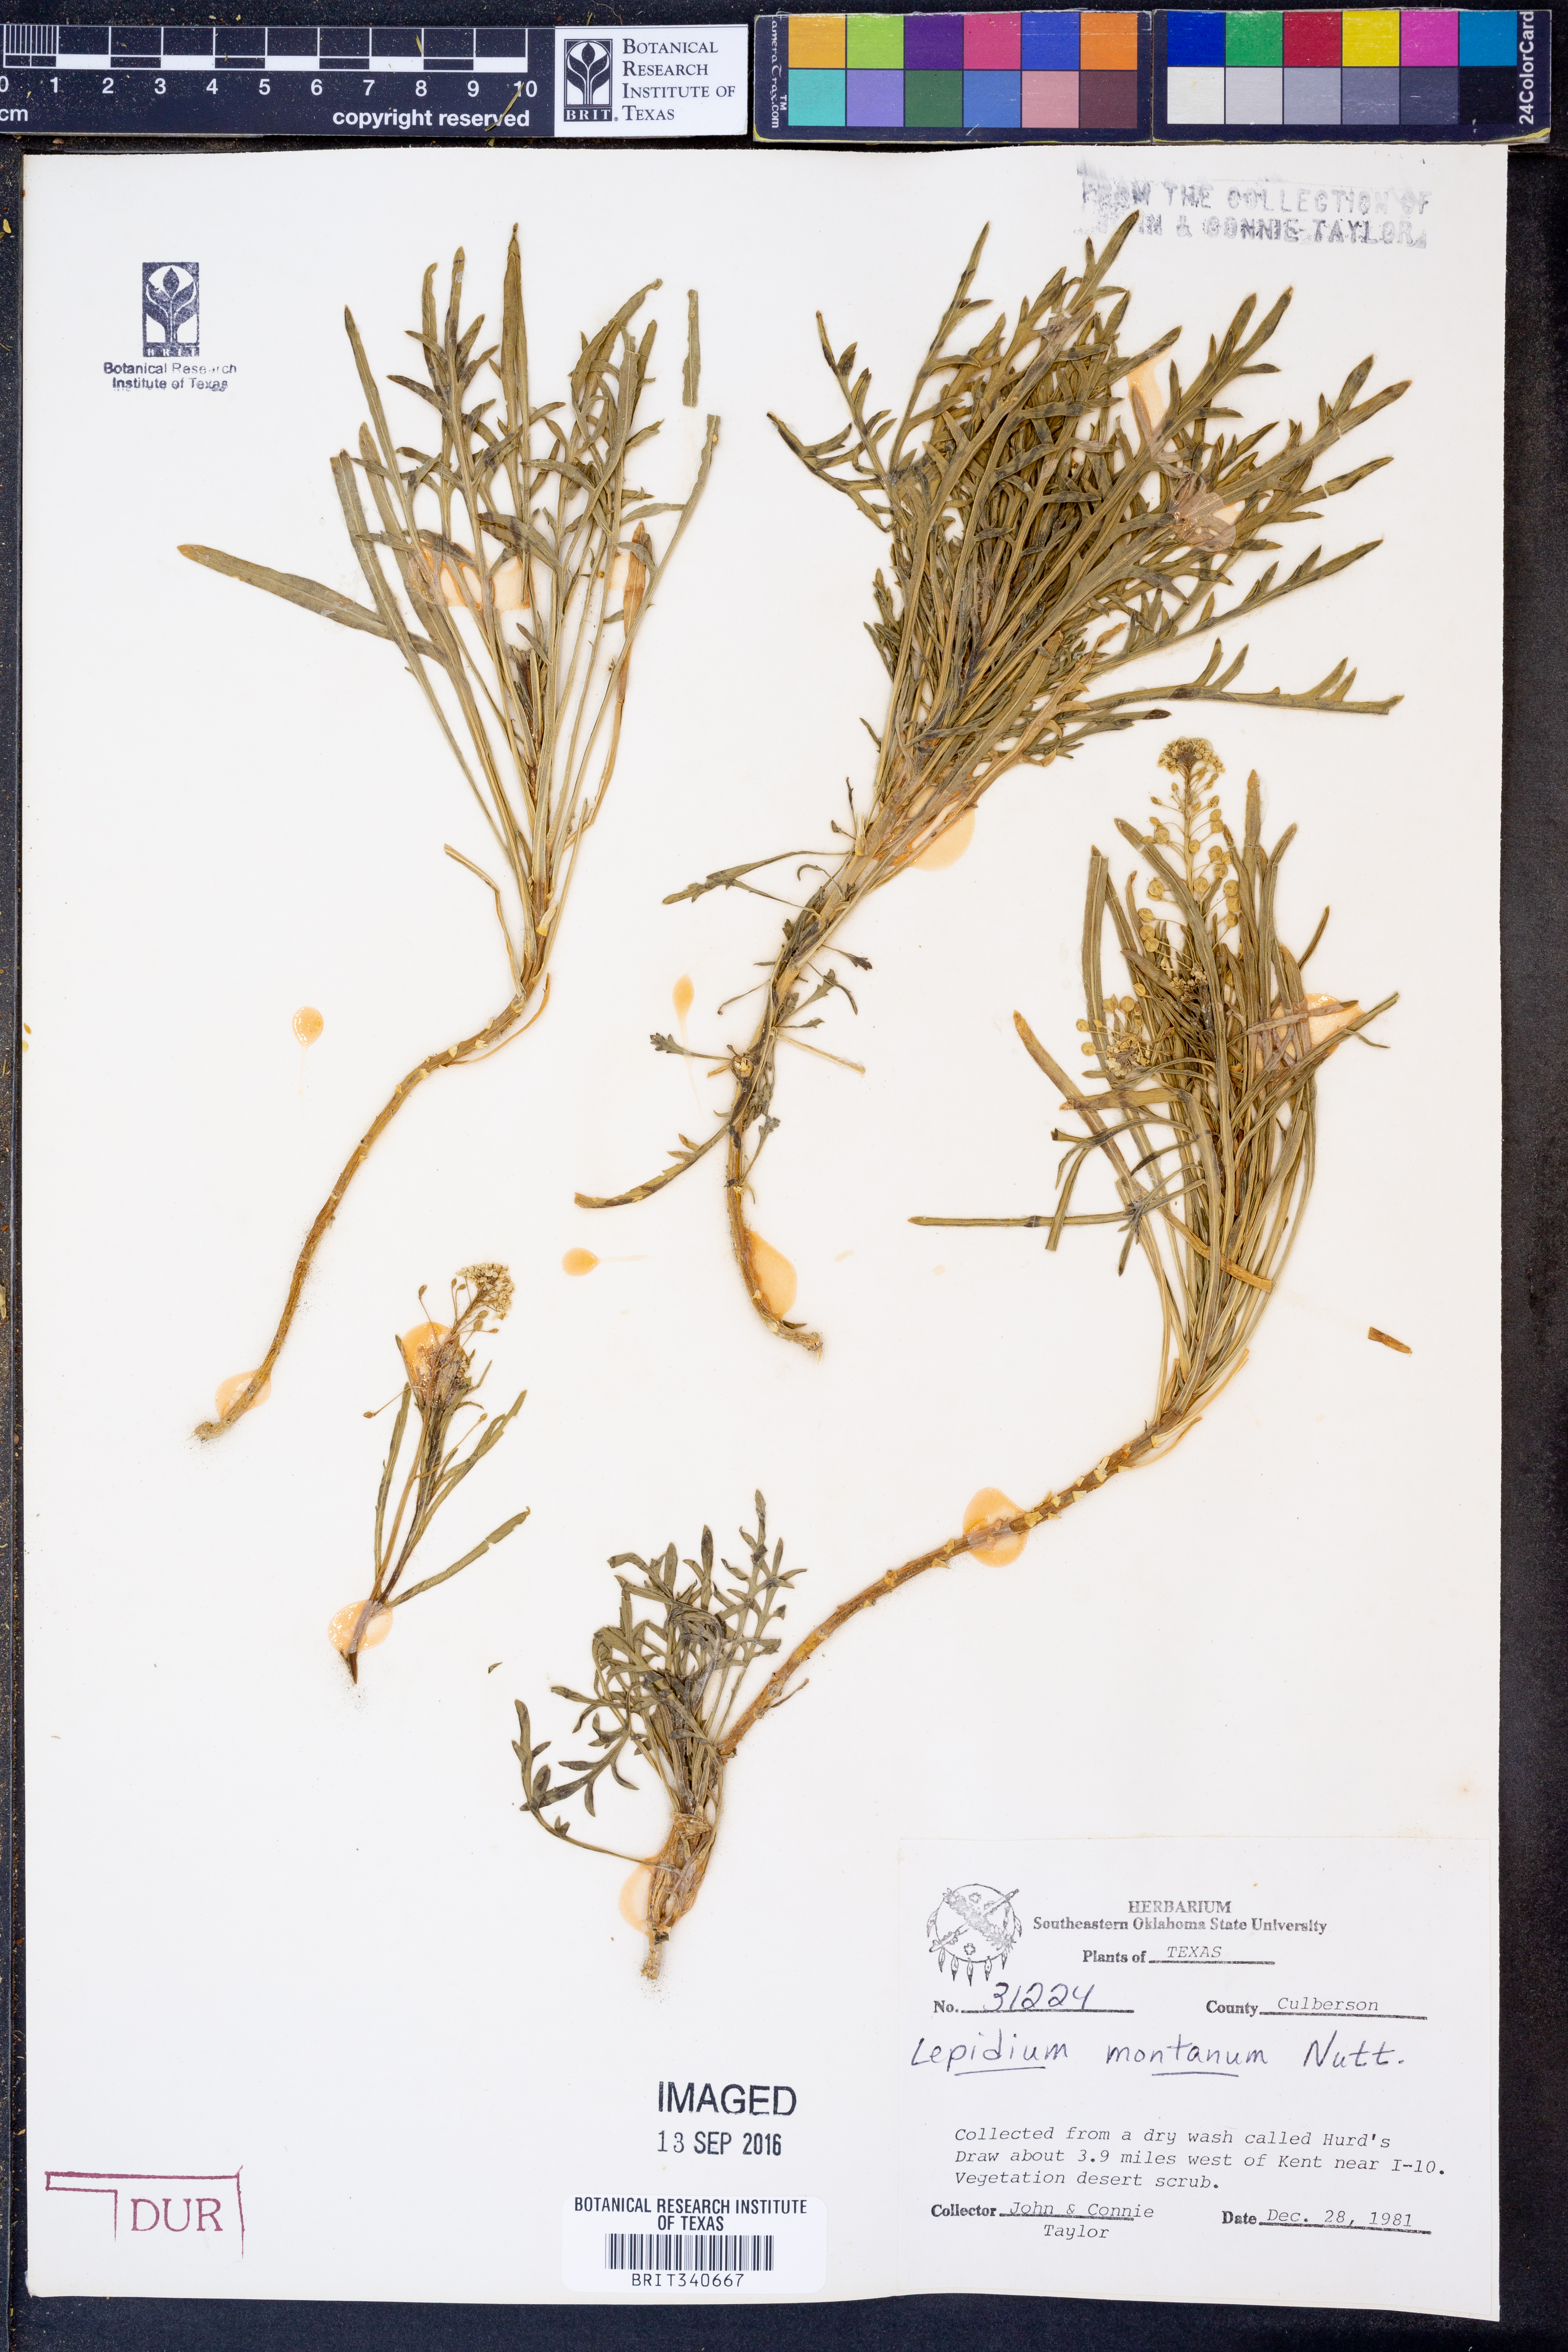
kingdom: Plantae
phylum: Tracheophyta
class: Magnoliopsida
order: Brassicales
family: Brassicaceae
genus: Lepidium
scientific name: Lepidium montanum
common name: Mountain pepperplant
